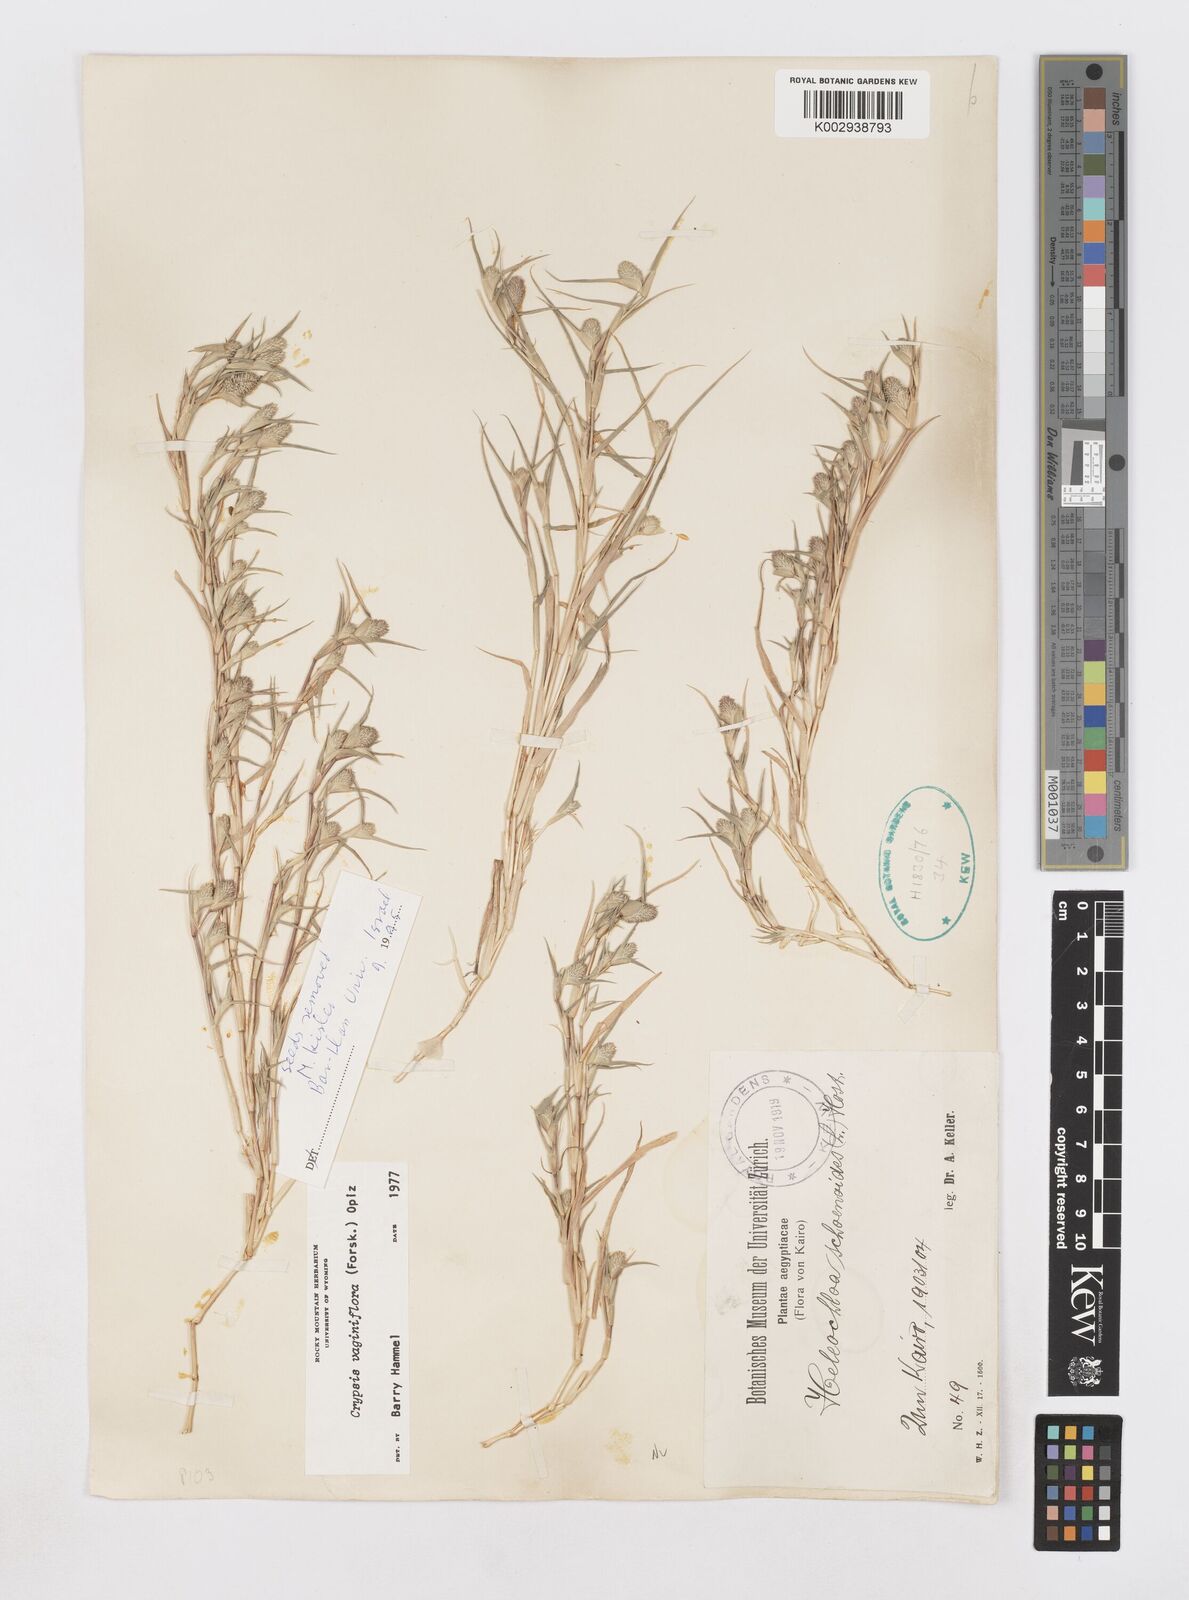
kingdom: Plantae
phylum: Tracheophyta
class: Liliopsida
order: Poales
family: Poaceae
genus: Sporobolus
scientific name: Sporobolus niliacus
